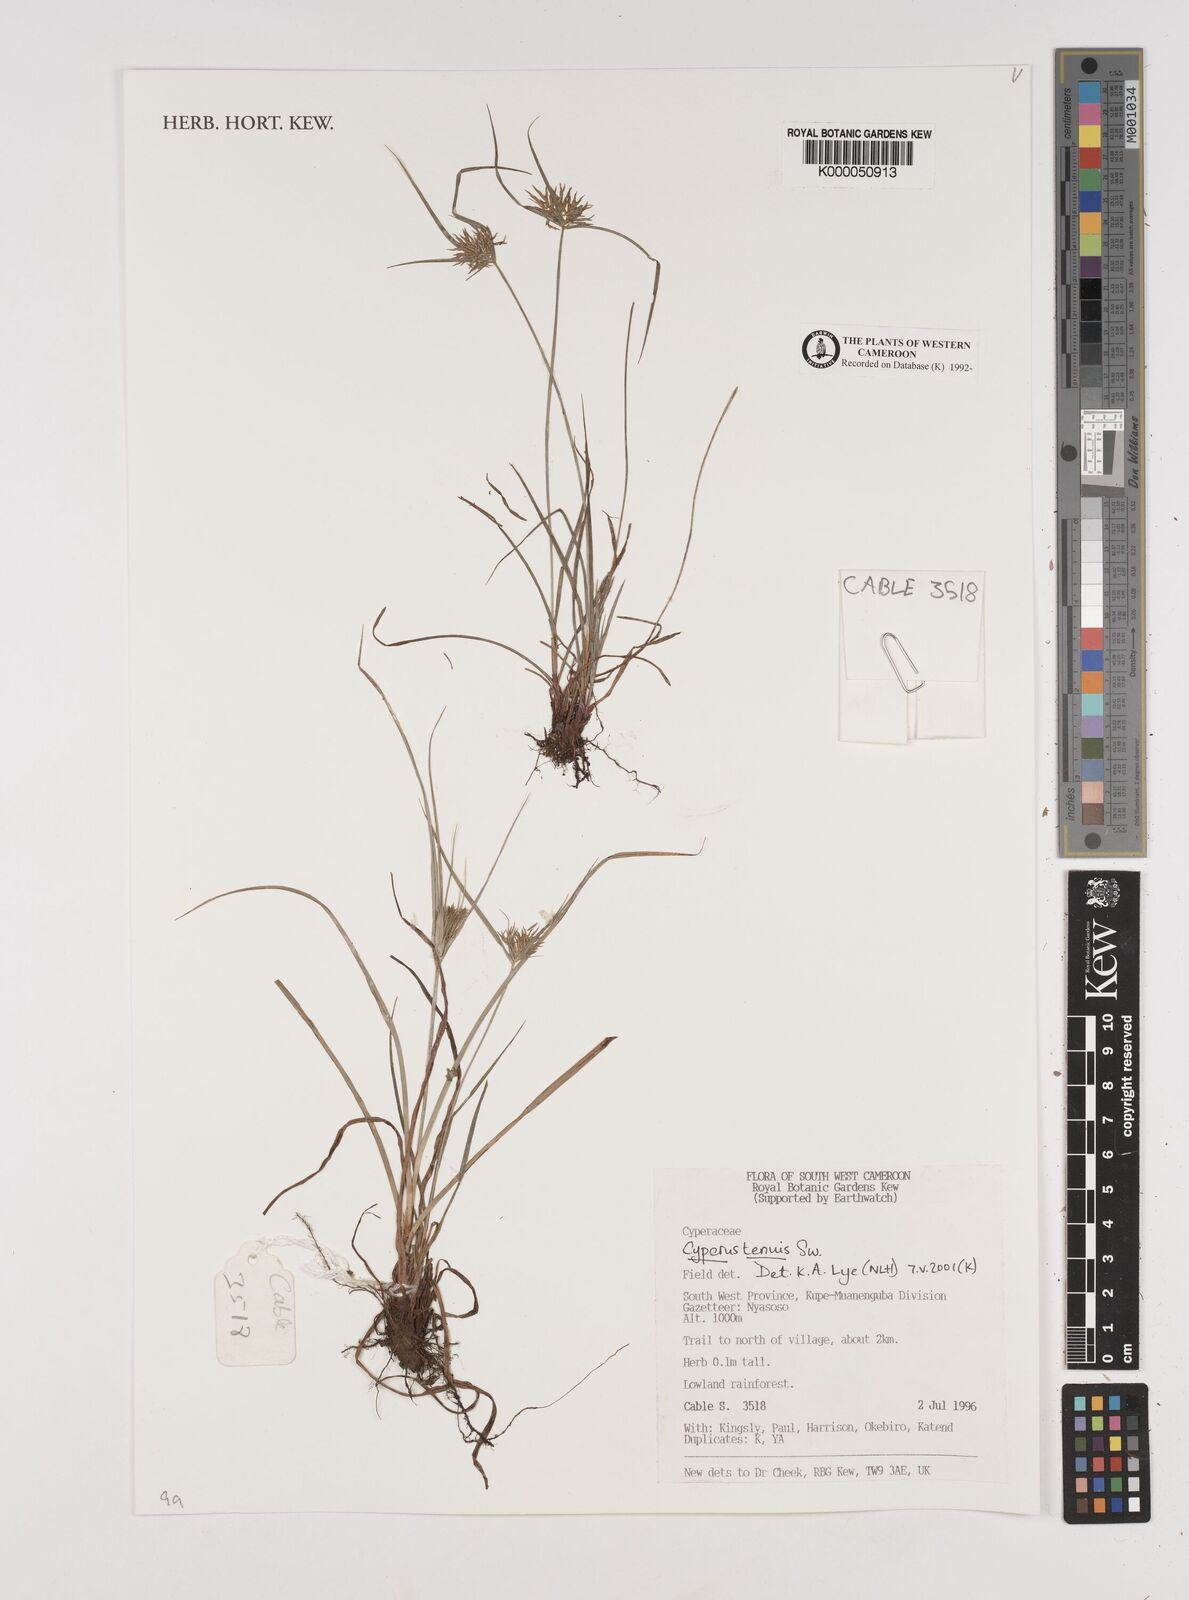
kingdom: Plantae
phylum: Tracheophyta
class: Liliopsida
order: Poales
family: Cyperaceae
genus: Cyperus
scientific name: Cyperus tenuis
